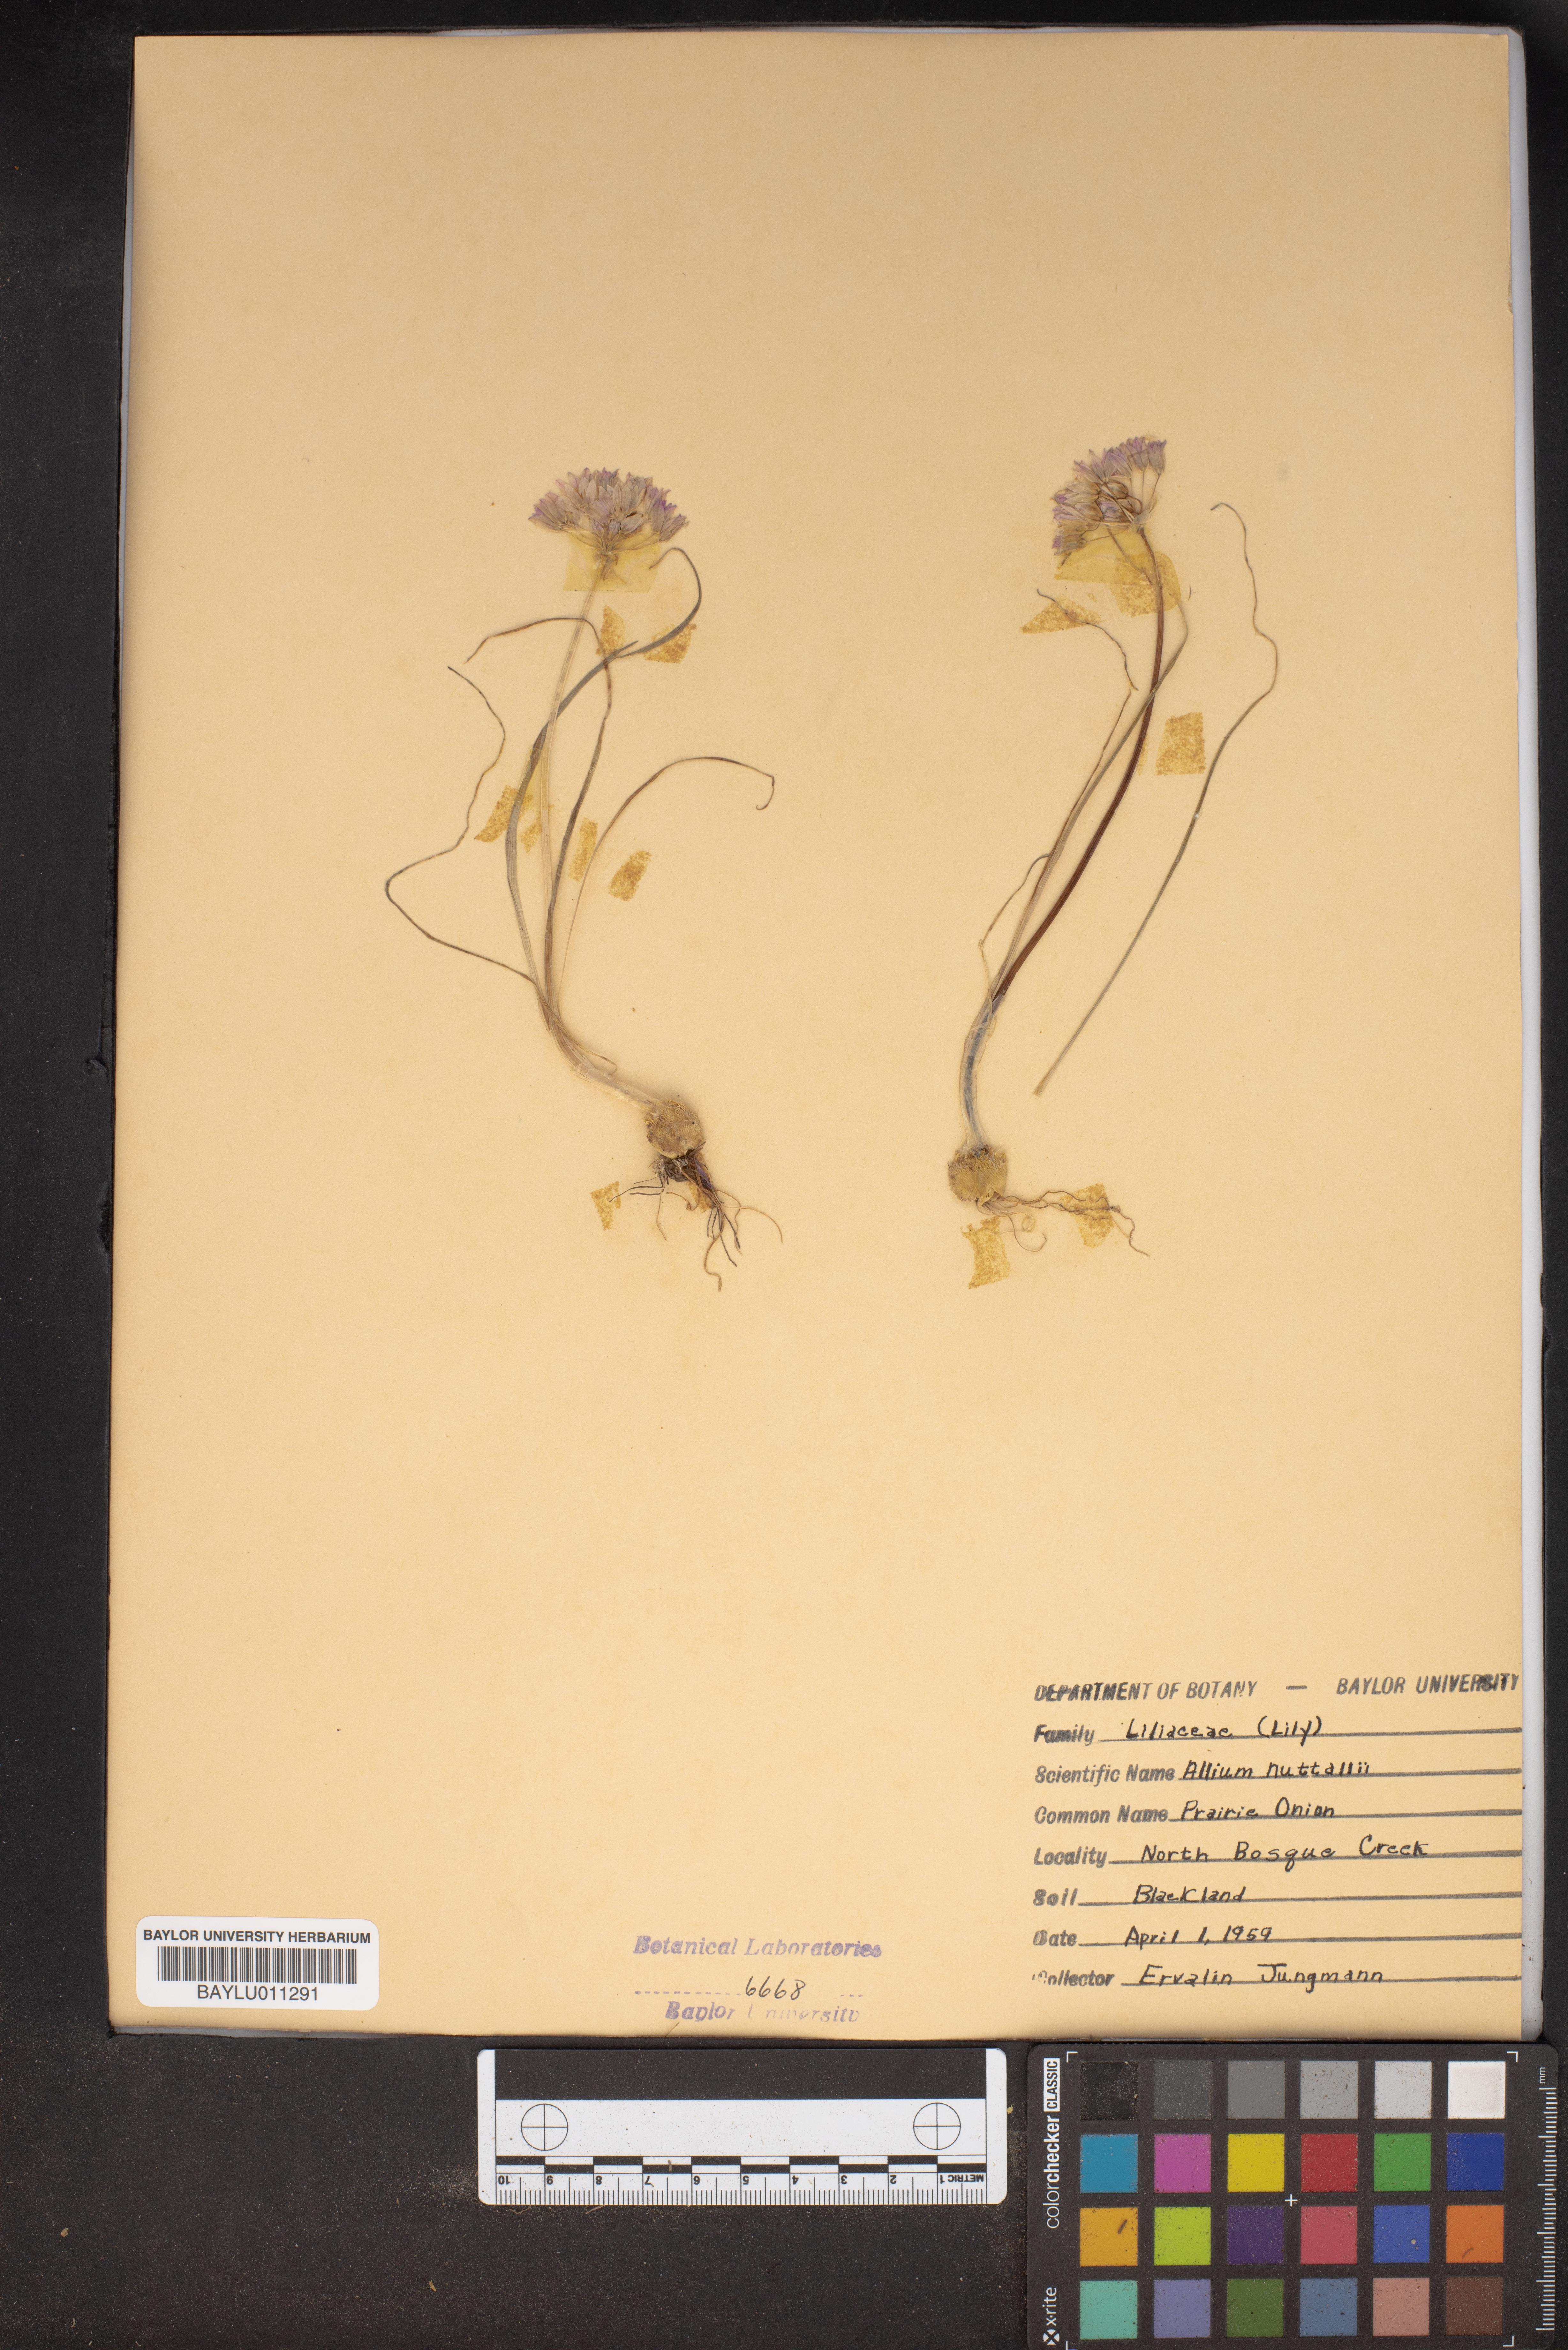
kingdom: Plantae
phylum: Tracheophyta
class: Liliopsida
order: Asparagales
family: Amaryllidaceae
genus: Allium
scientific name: Allium drummondii
